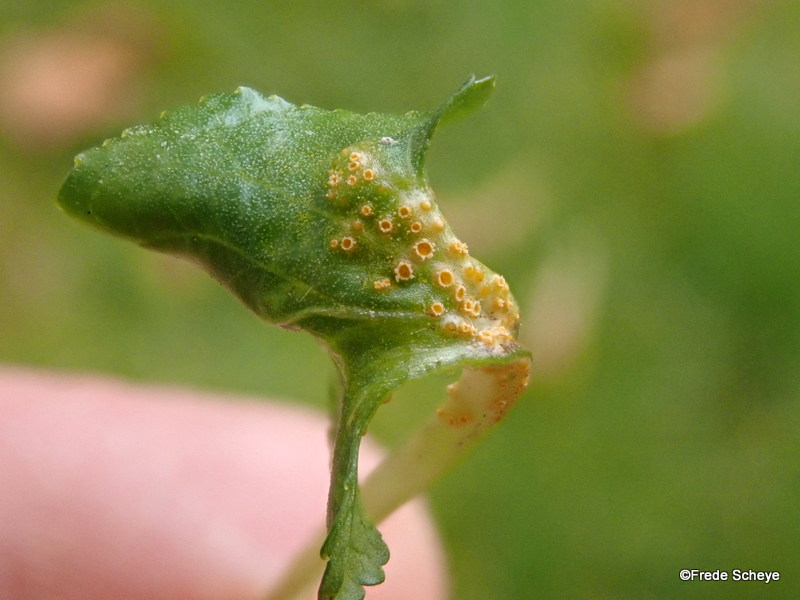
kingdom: Fungi
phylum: Basidiomycota
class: Pucciniomycetes
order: Pucciniales
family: Pucciniaceae
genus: Puccinia
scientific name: Puccinia violae
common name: viol-tvecellerust
